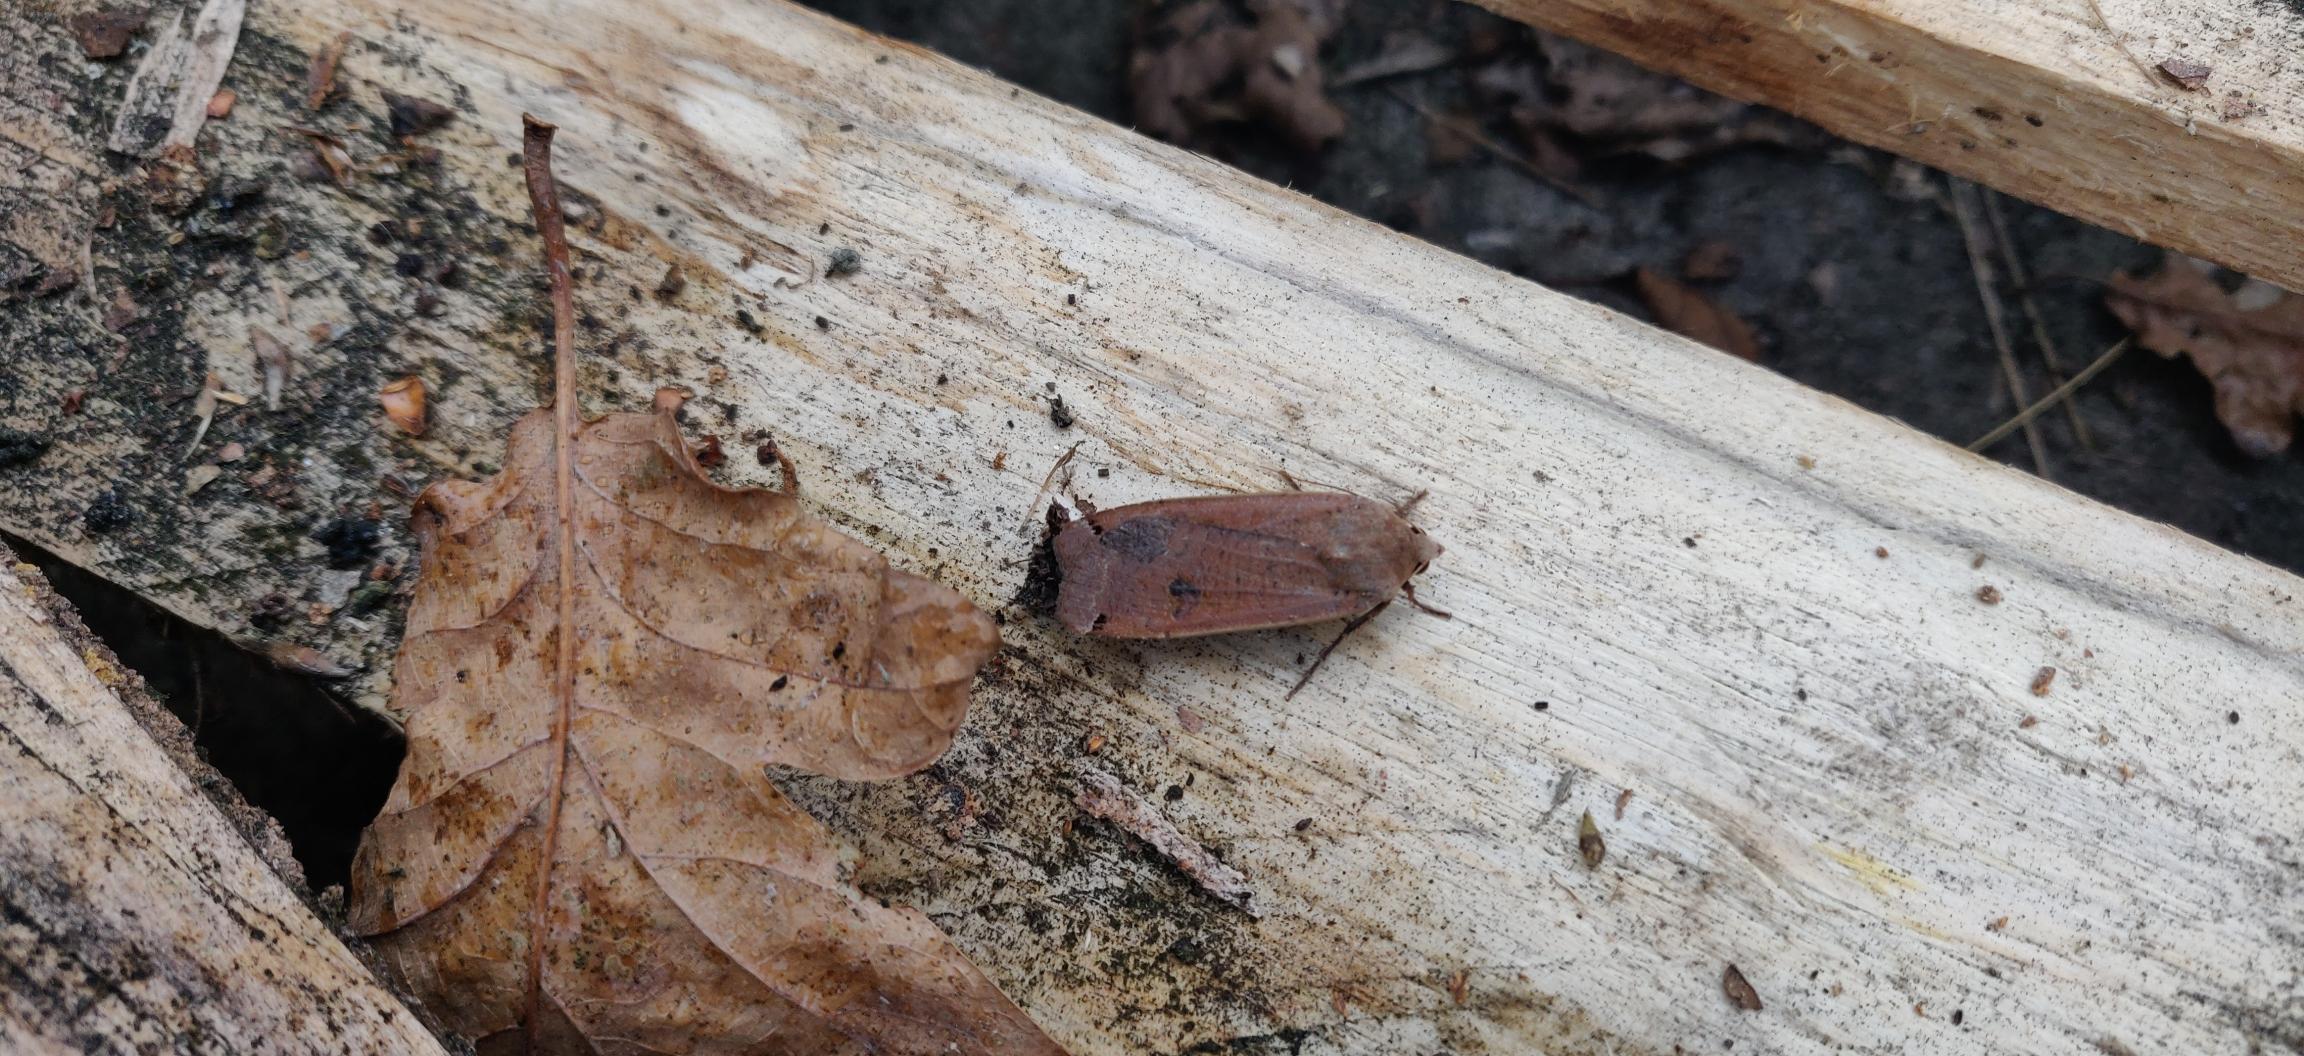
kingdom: Animalia
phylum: Arthropoda
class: Insecta
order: Lepidoptera
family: Noctuidae
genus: Noctua
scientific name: Noctua pronuba
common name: Stor smutugle
